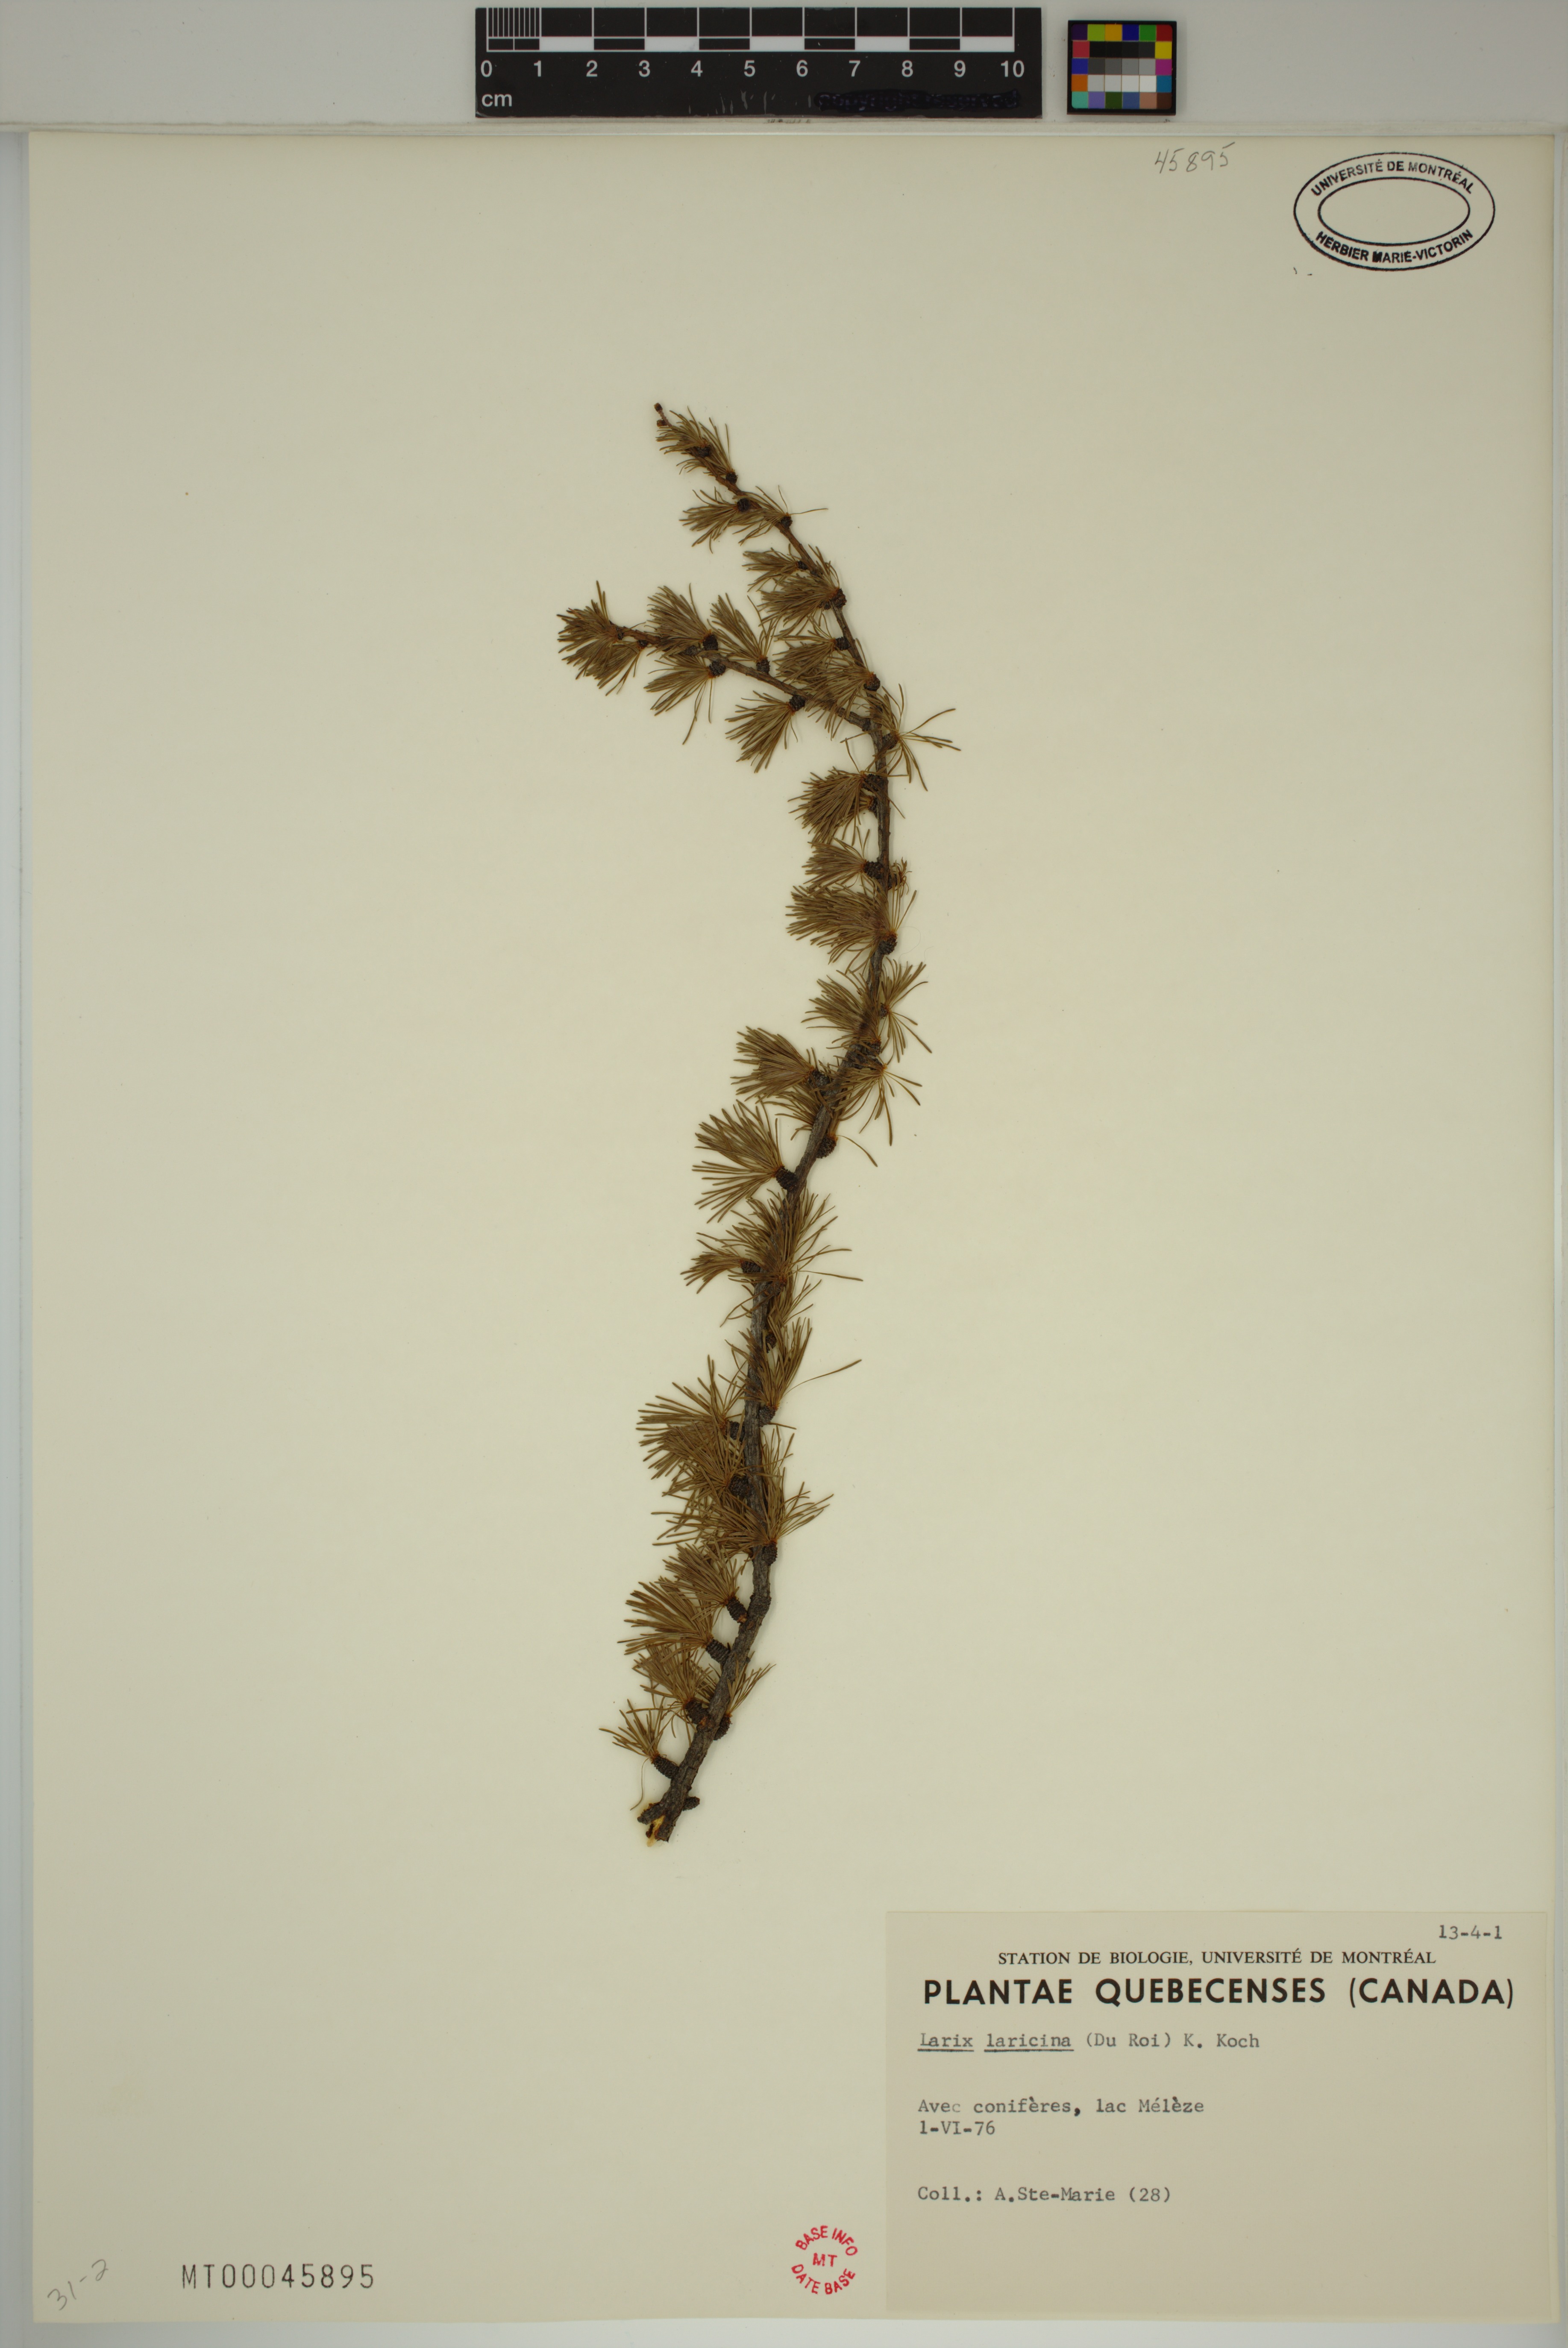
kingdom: Plantae
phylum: Tracheophyta
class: Pinopsida
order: Pinales
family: Pinaceae
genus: Larix
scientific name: Larix laricina
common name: American larch
